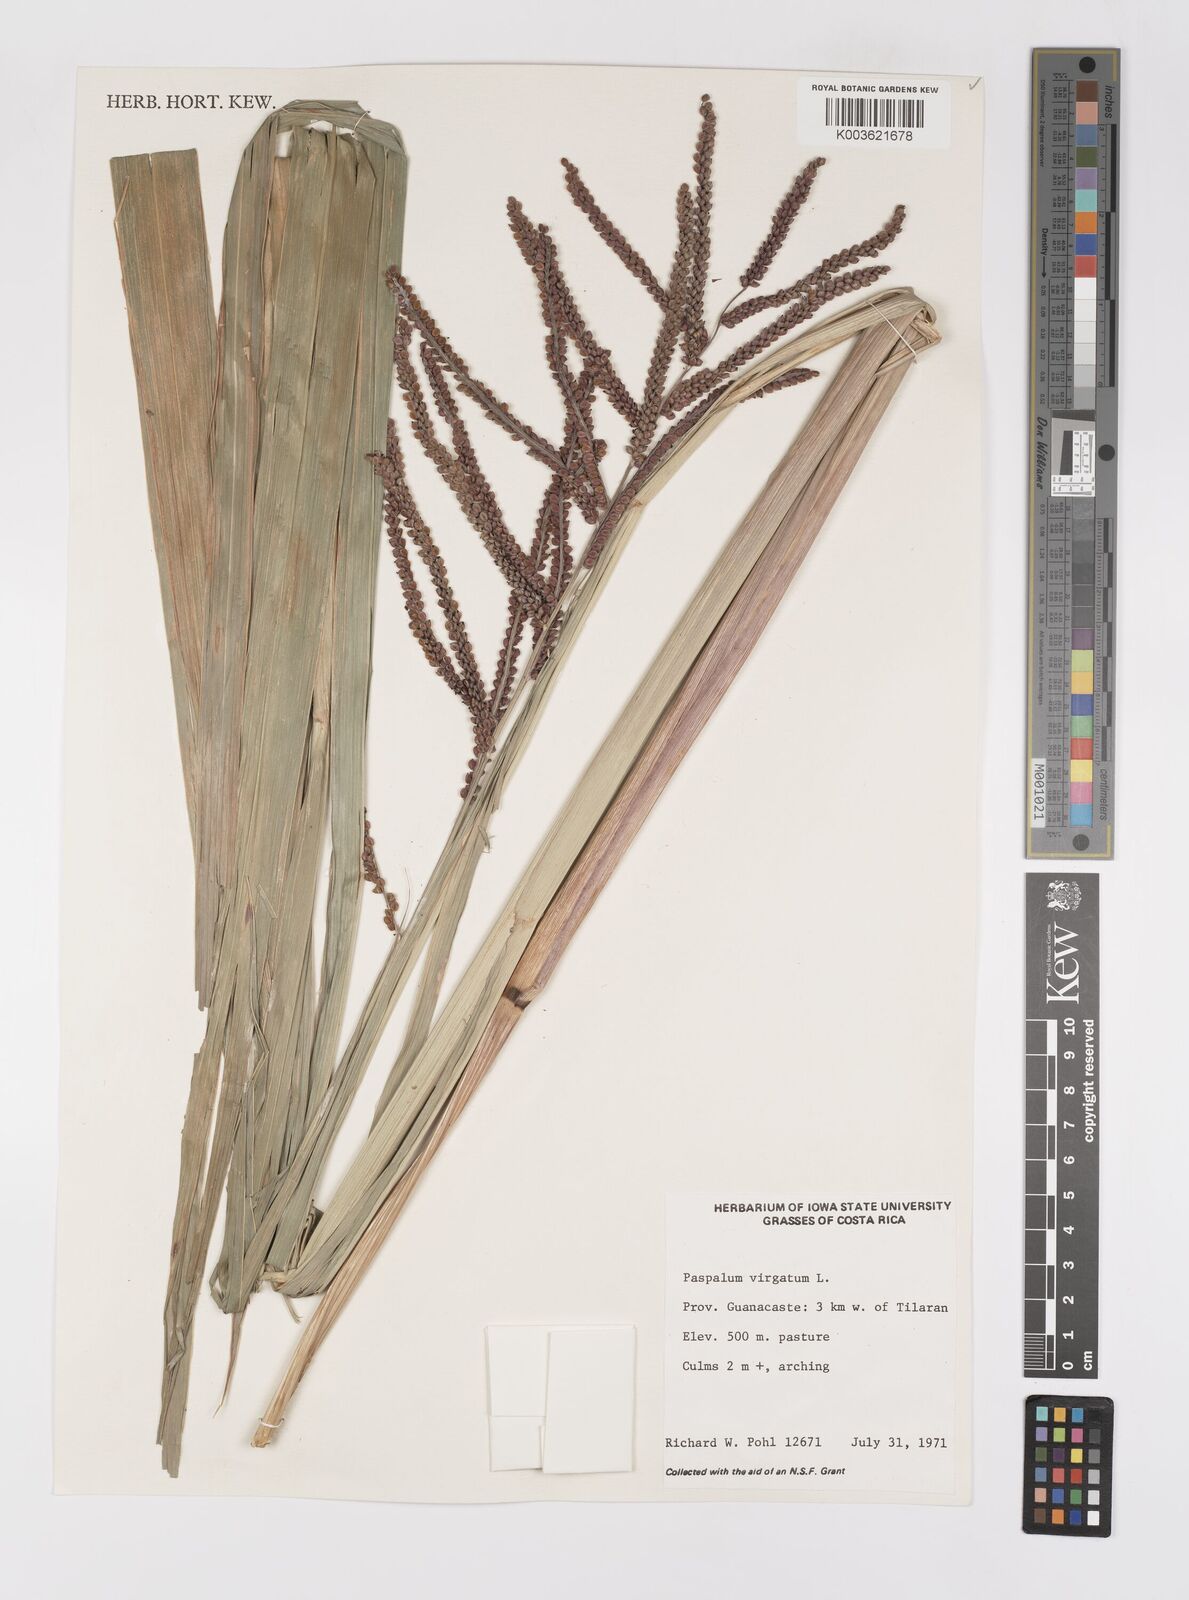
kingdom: Plantae
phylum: Tracheophyta
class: Liliopsida
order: Poales
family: Poaceae
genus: Paspalum
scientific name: Paspalum virgatum
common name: Talquezal
